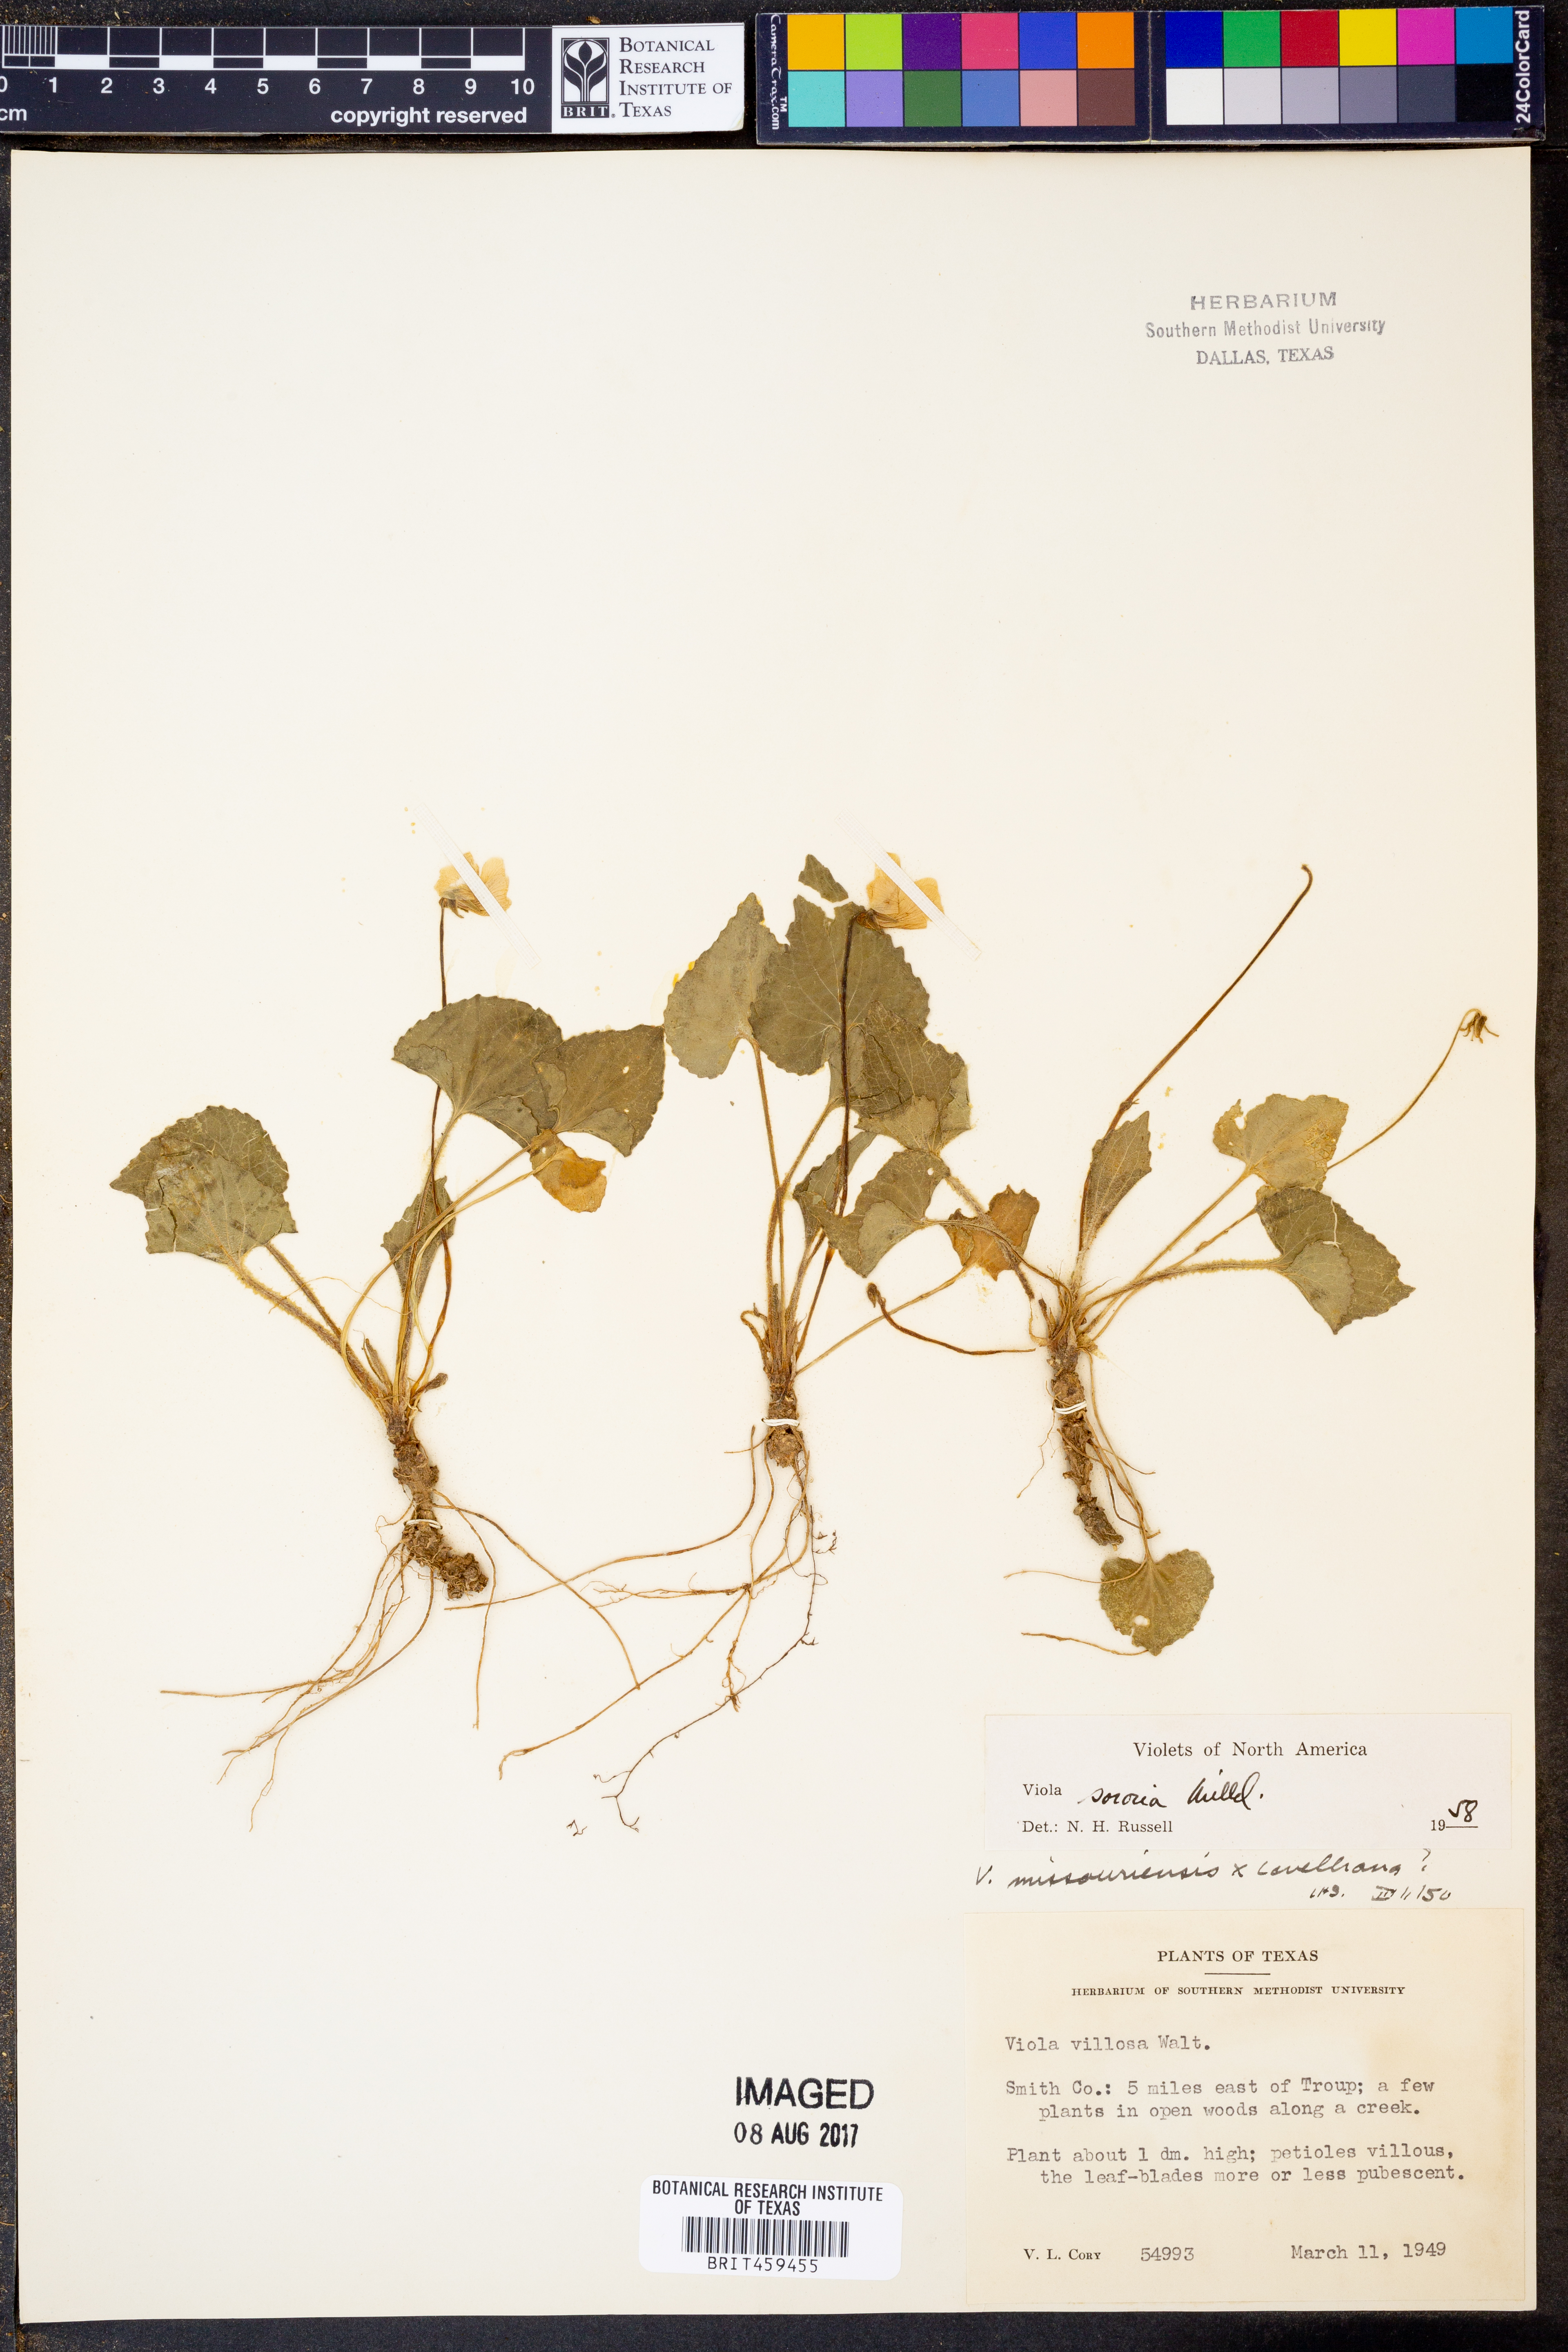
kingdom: Plantae
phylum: Tracheophyta
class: Magnoliopsida
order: Malpighiales
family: Violaceae
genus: Viola
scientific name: Viola sororia
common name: Dooryard violet
